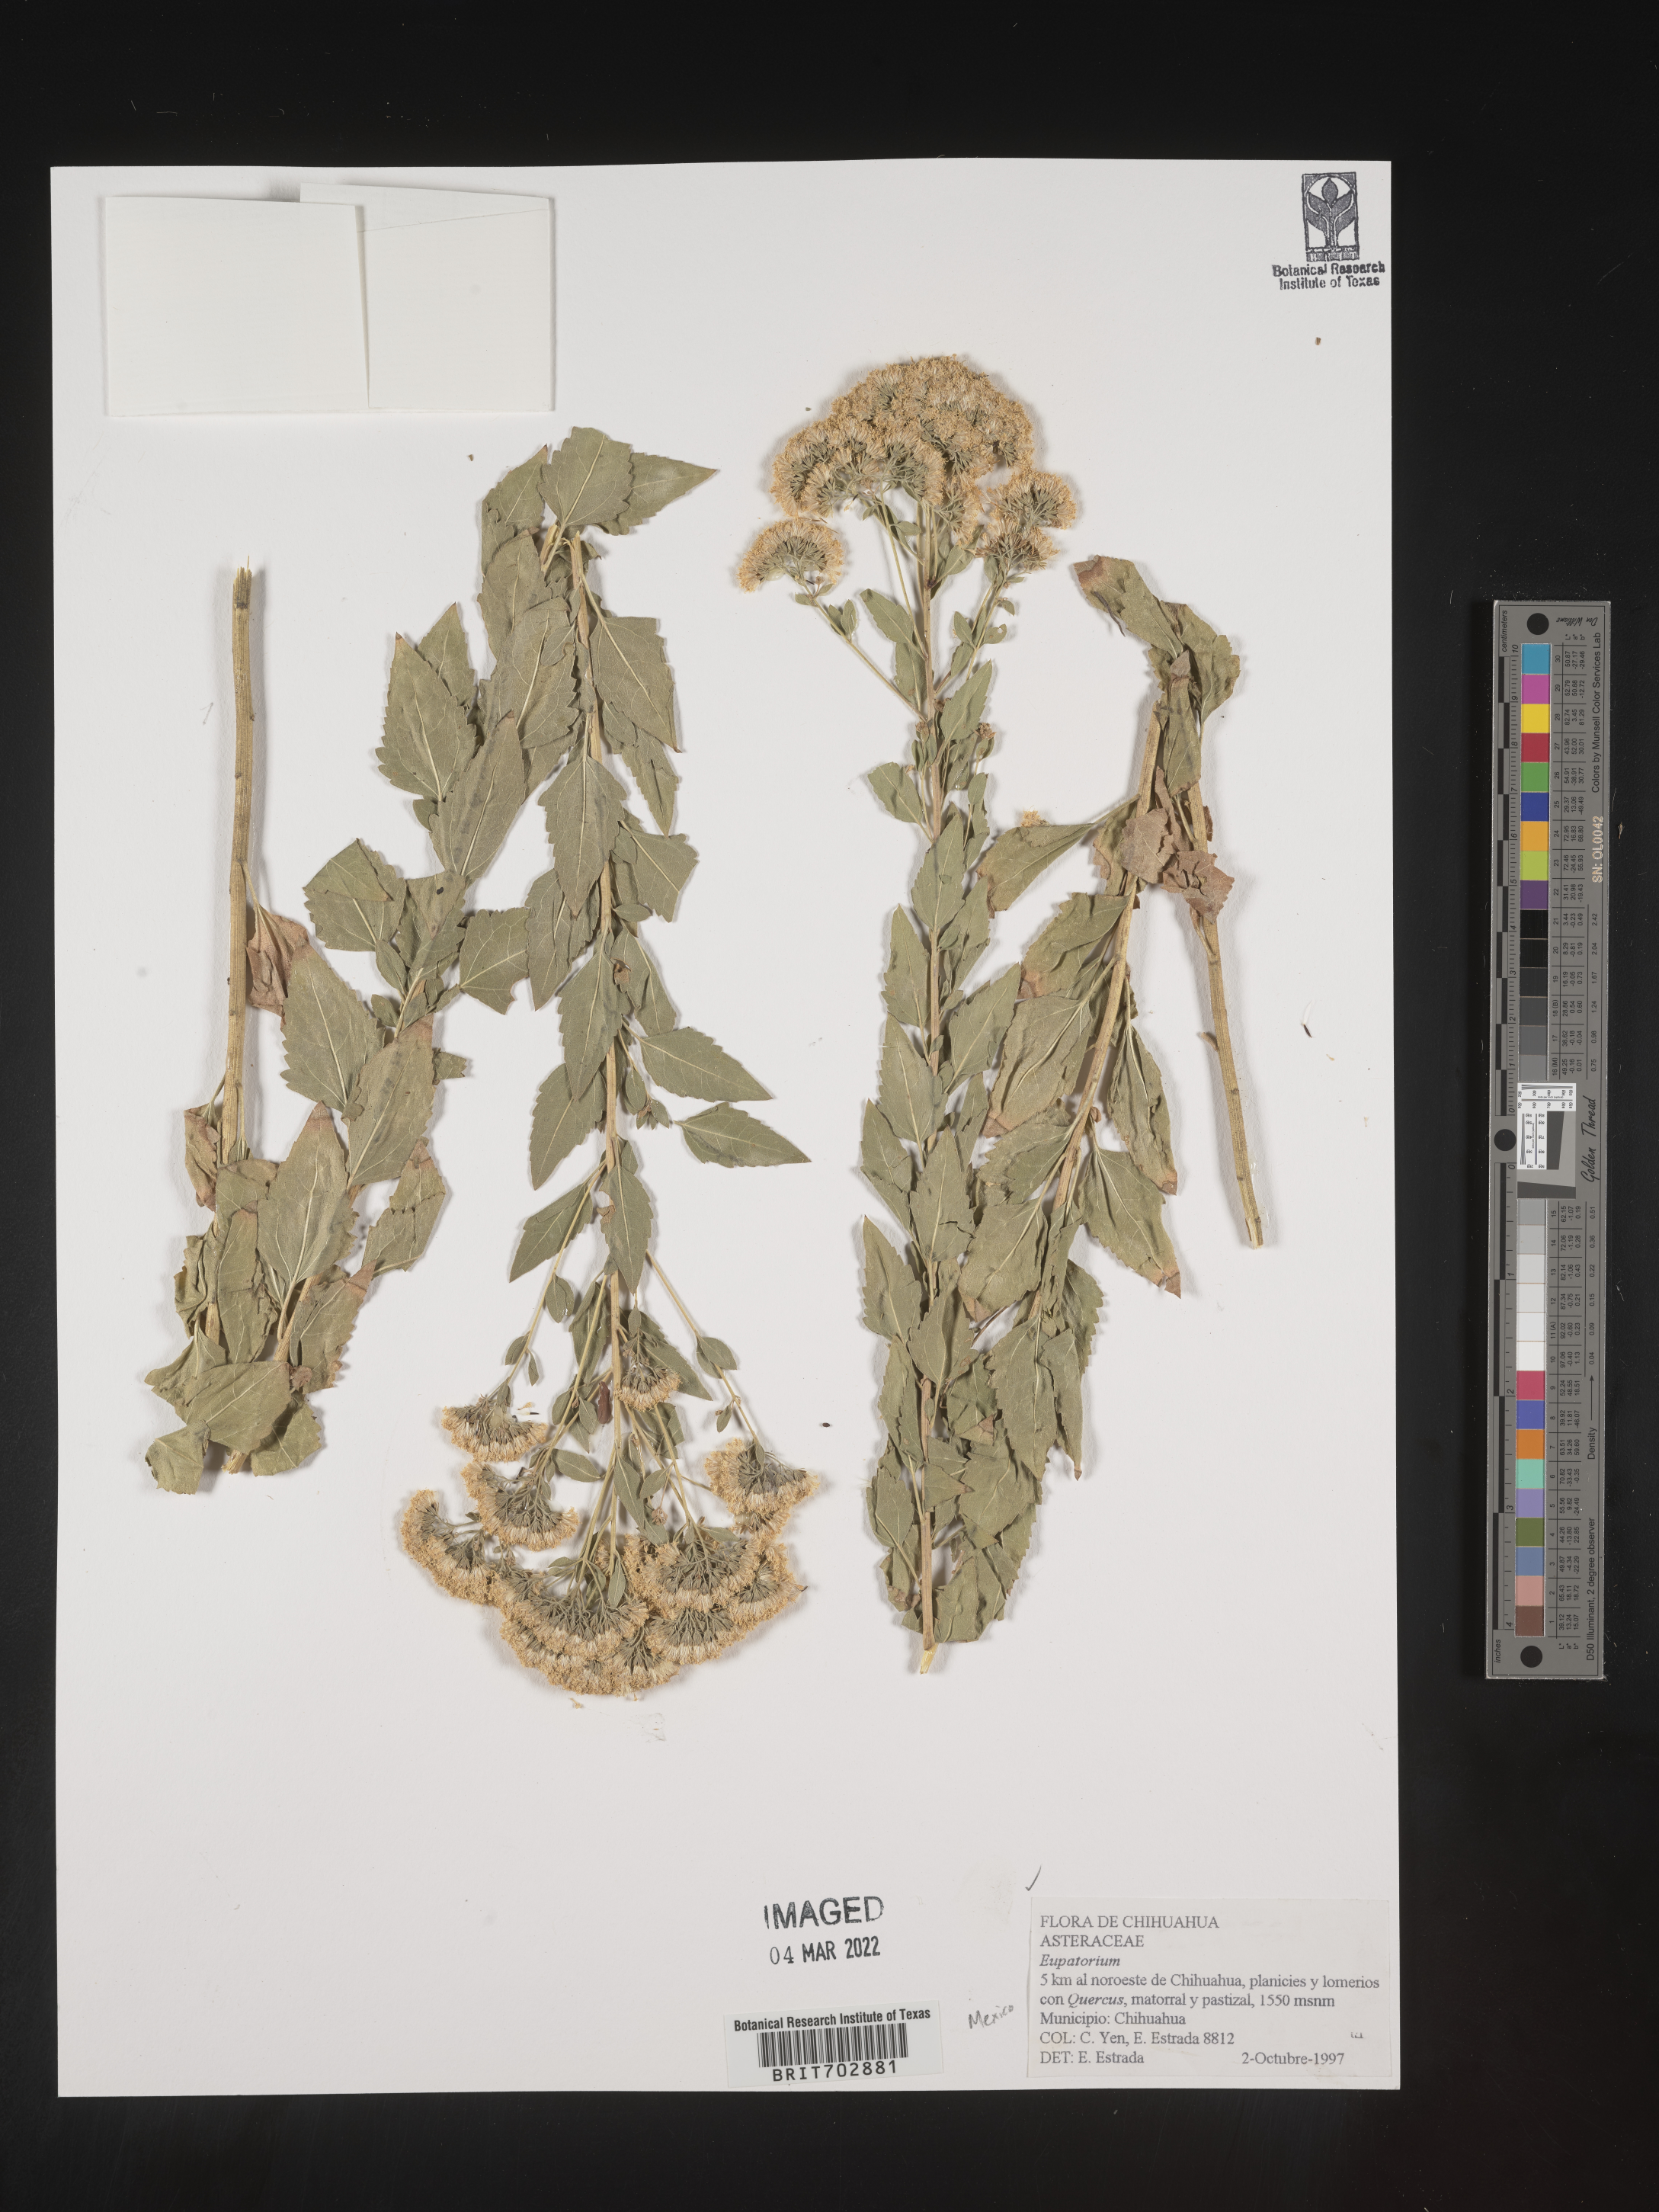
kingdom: Plantae
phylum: Tracheophyta
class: Magnoliopsida
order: Asterales
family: Asteraceae
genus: Eupatorium
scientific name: Eupatorium
